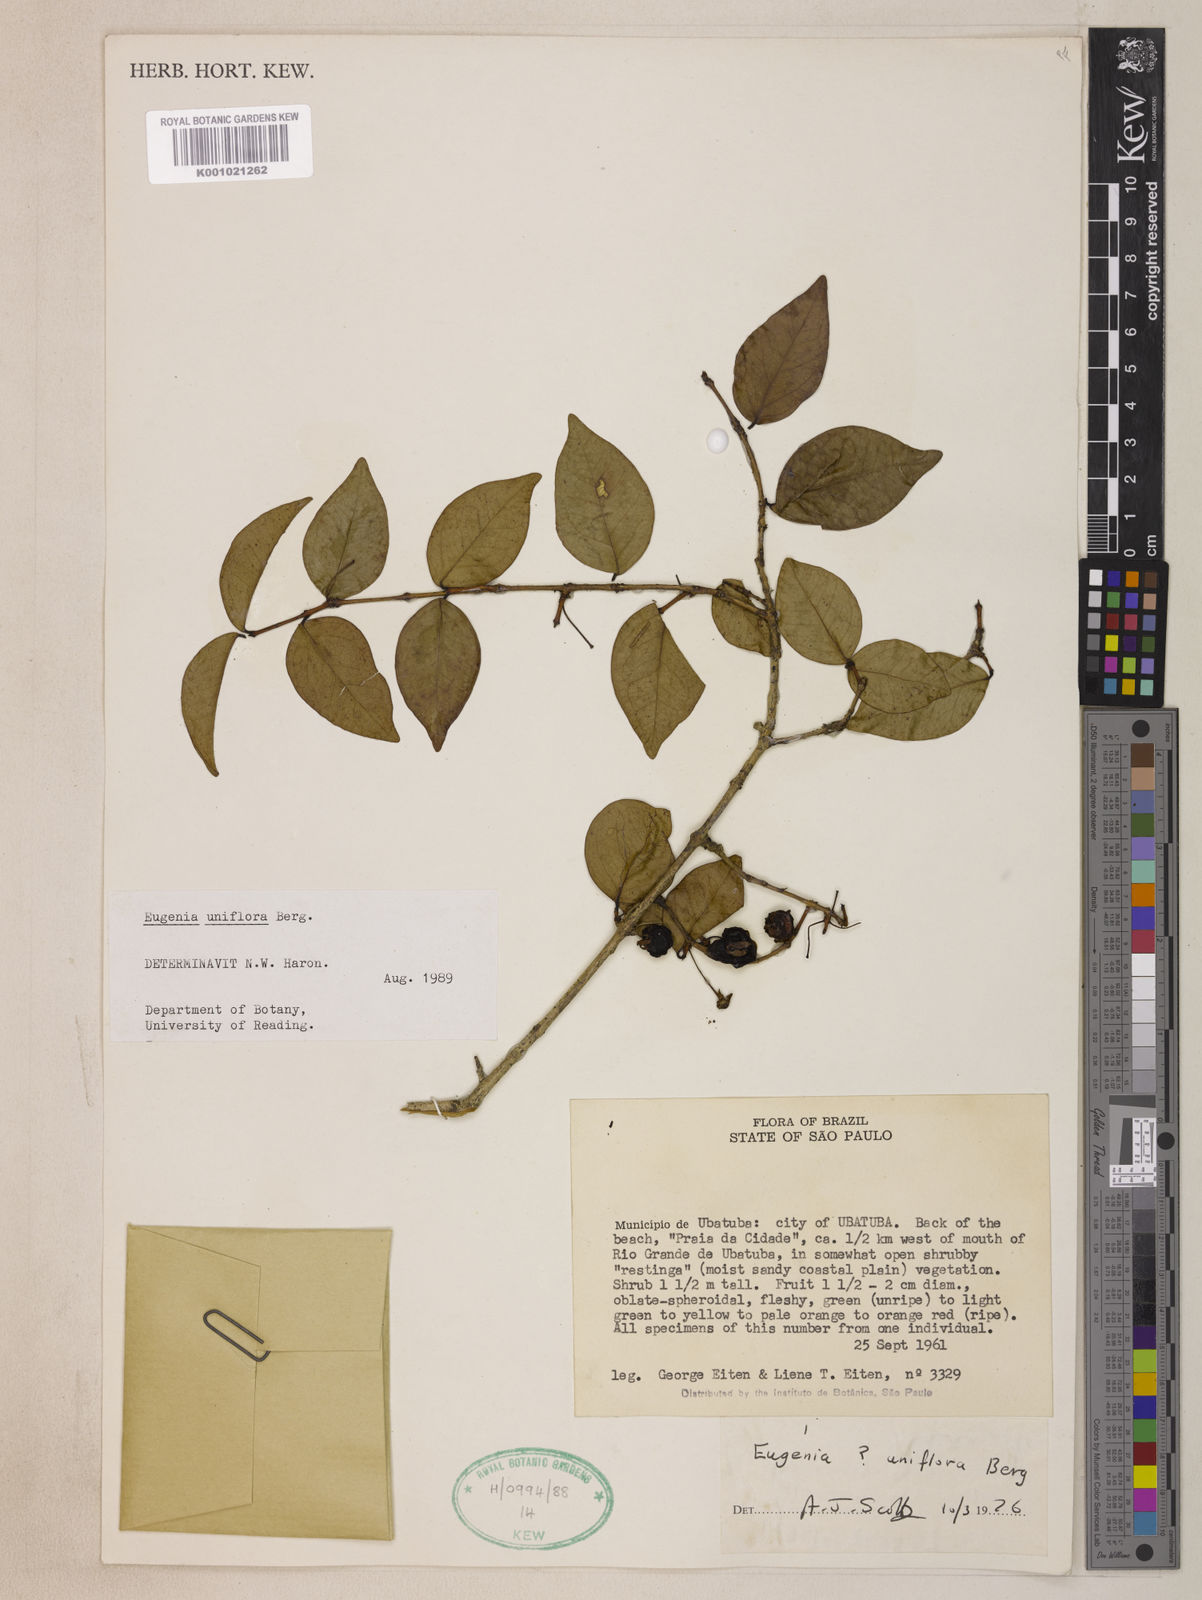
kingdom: Plantae
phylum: Tracheophyta
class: Magnoliopsida
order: Myrtales
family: Myrtaceae
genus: Eugenia
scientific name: Eugenia uniflora
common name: Surinam cherry
